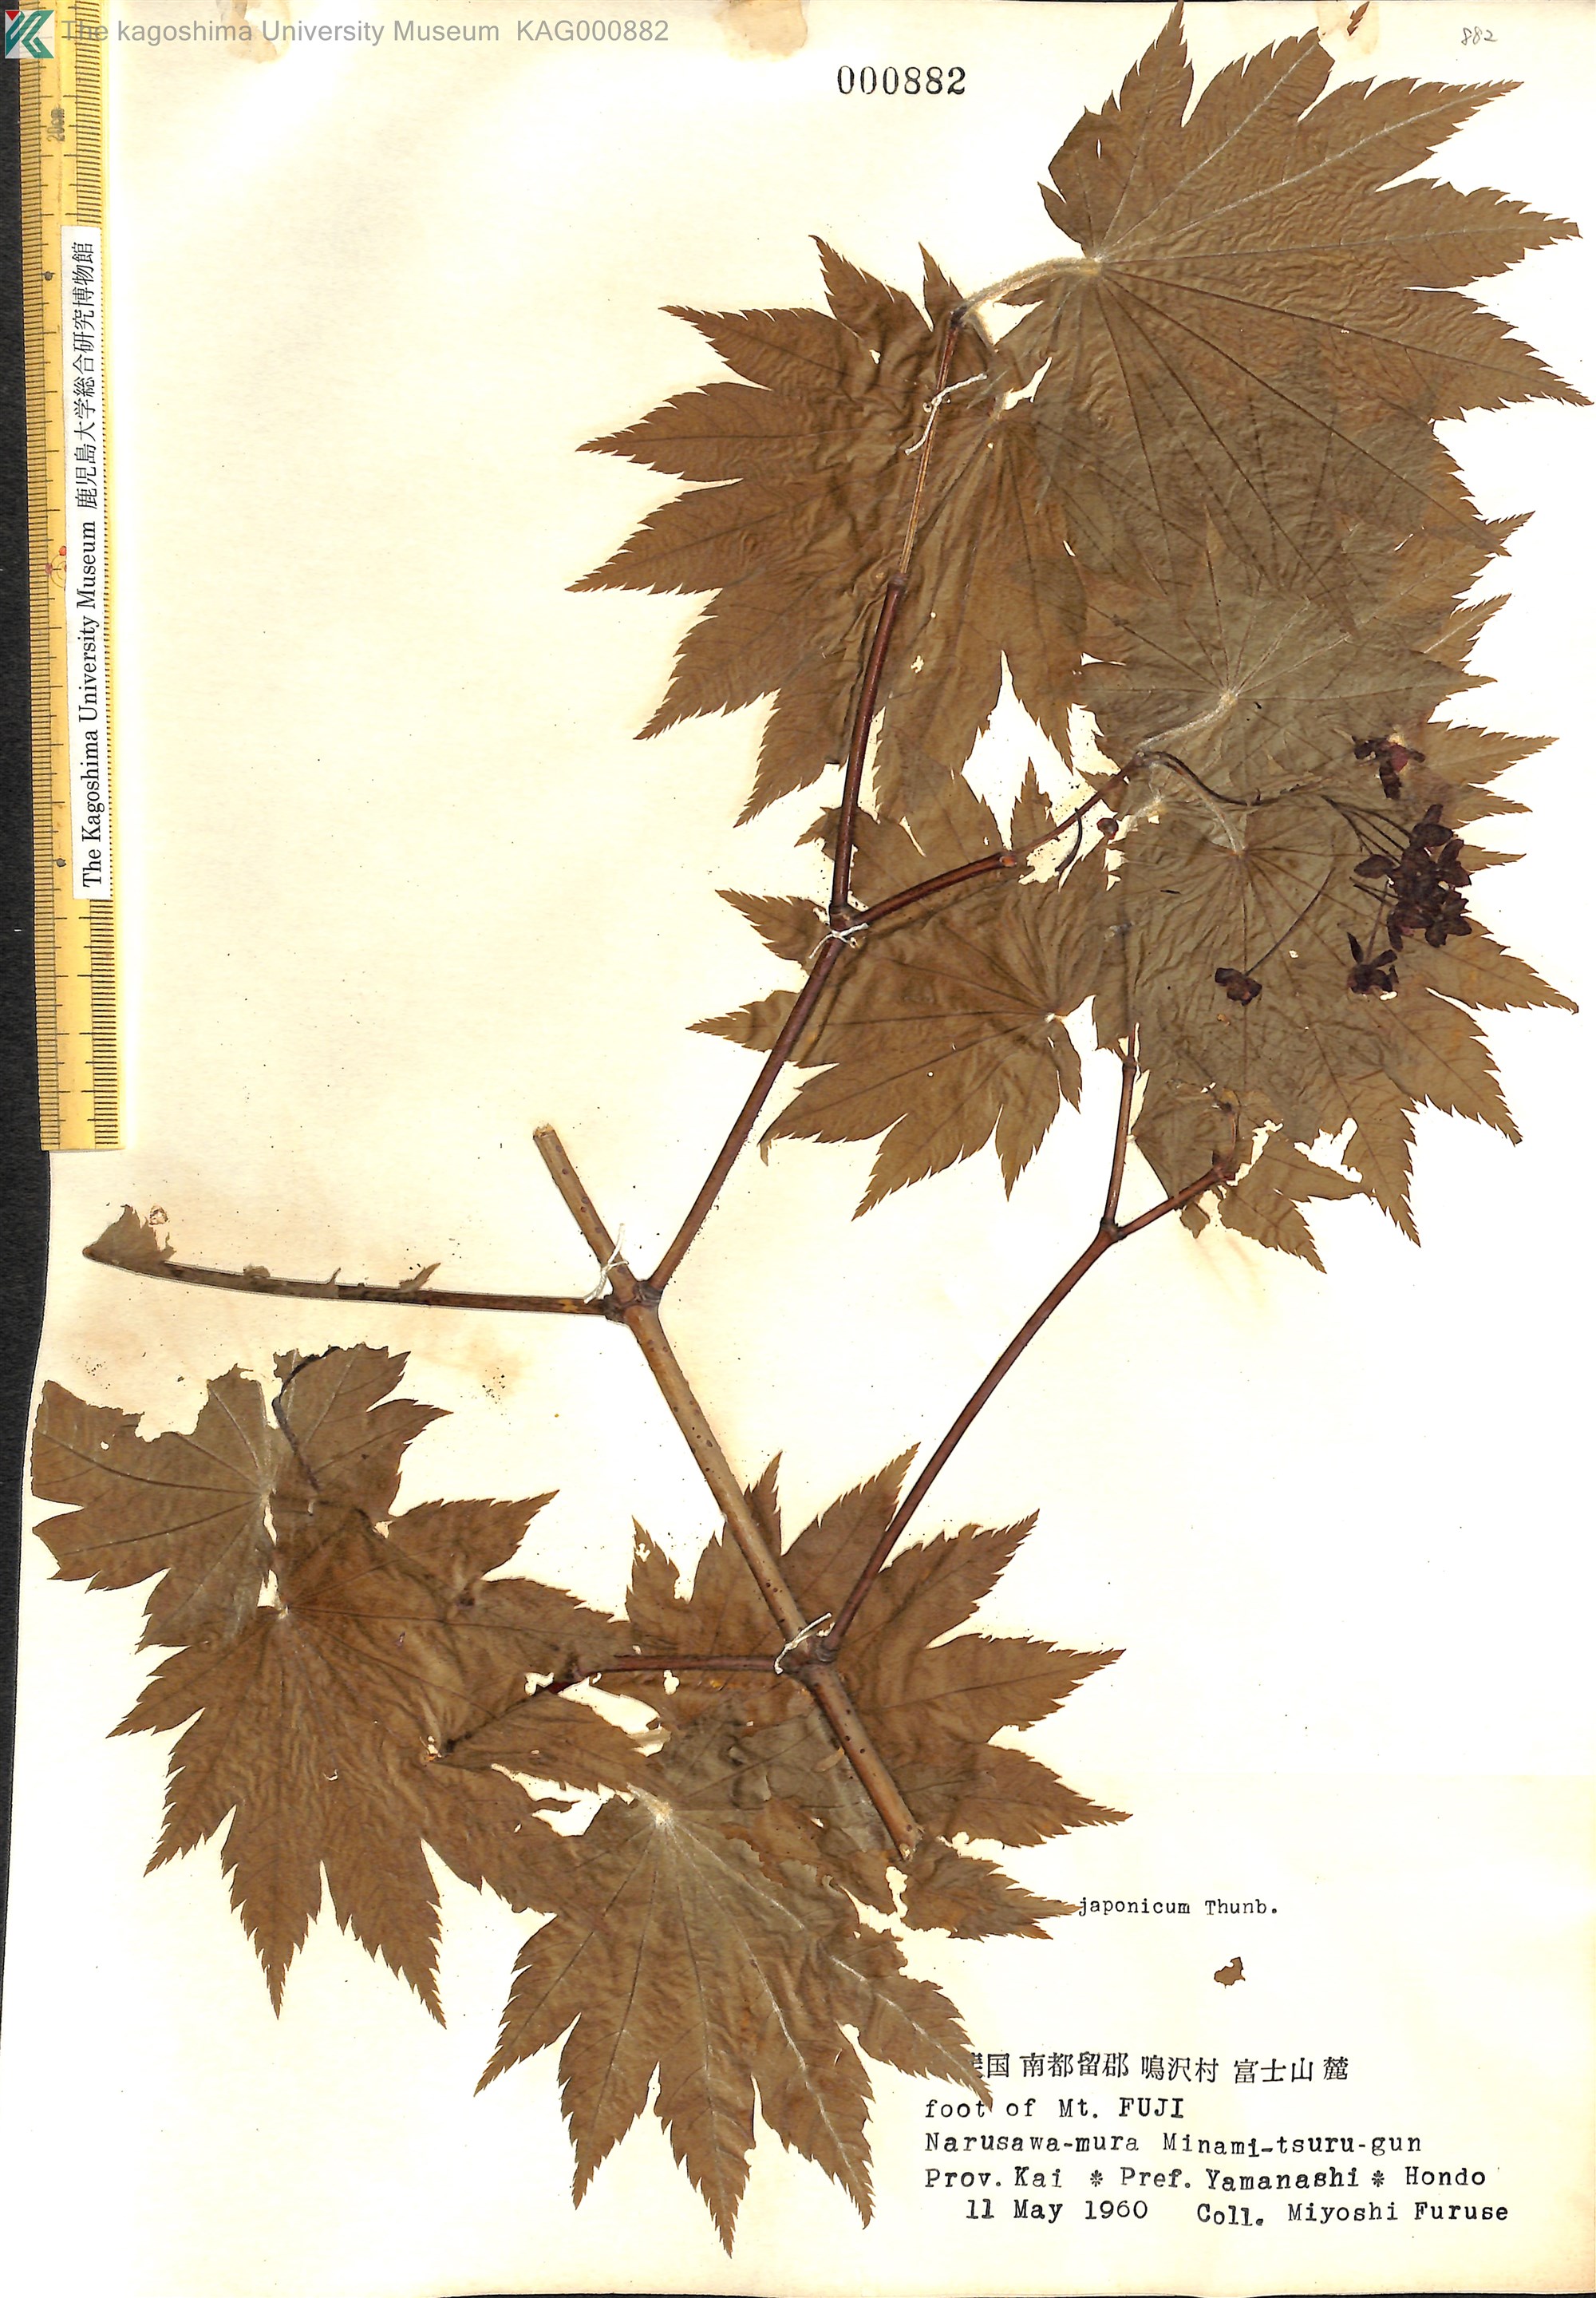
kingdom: Plantae
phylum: Tracheophyta
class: Magnoliopsida
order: Sapindales
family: Sapindaceae
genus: Acer
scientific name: Acer japonicum
